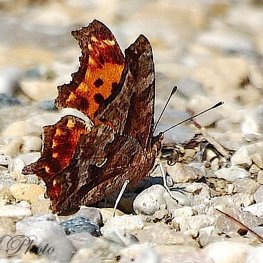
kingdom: Animalia
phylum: Arthropoda
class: Insecta
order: Lepidoptera
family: Nymphalidae
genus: Polygonia
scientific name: Polygonia comma
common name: Eastern Comma
